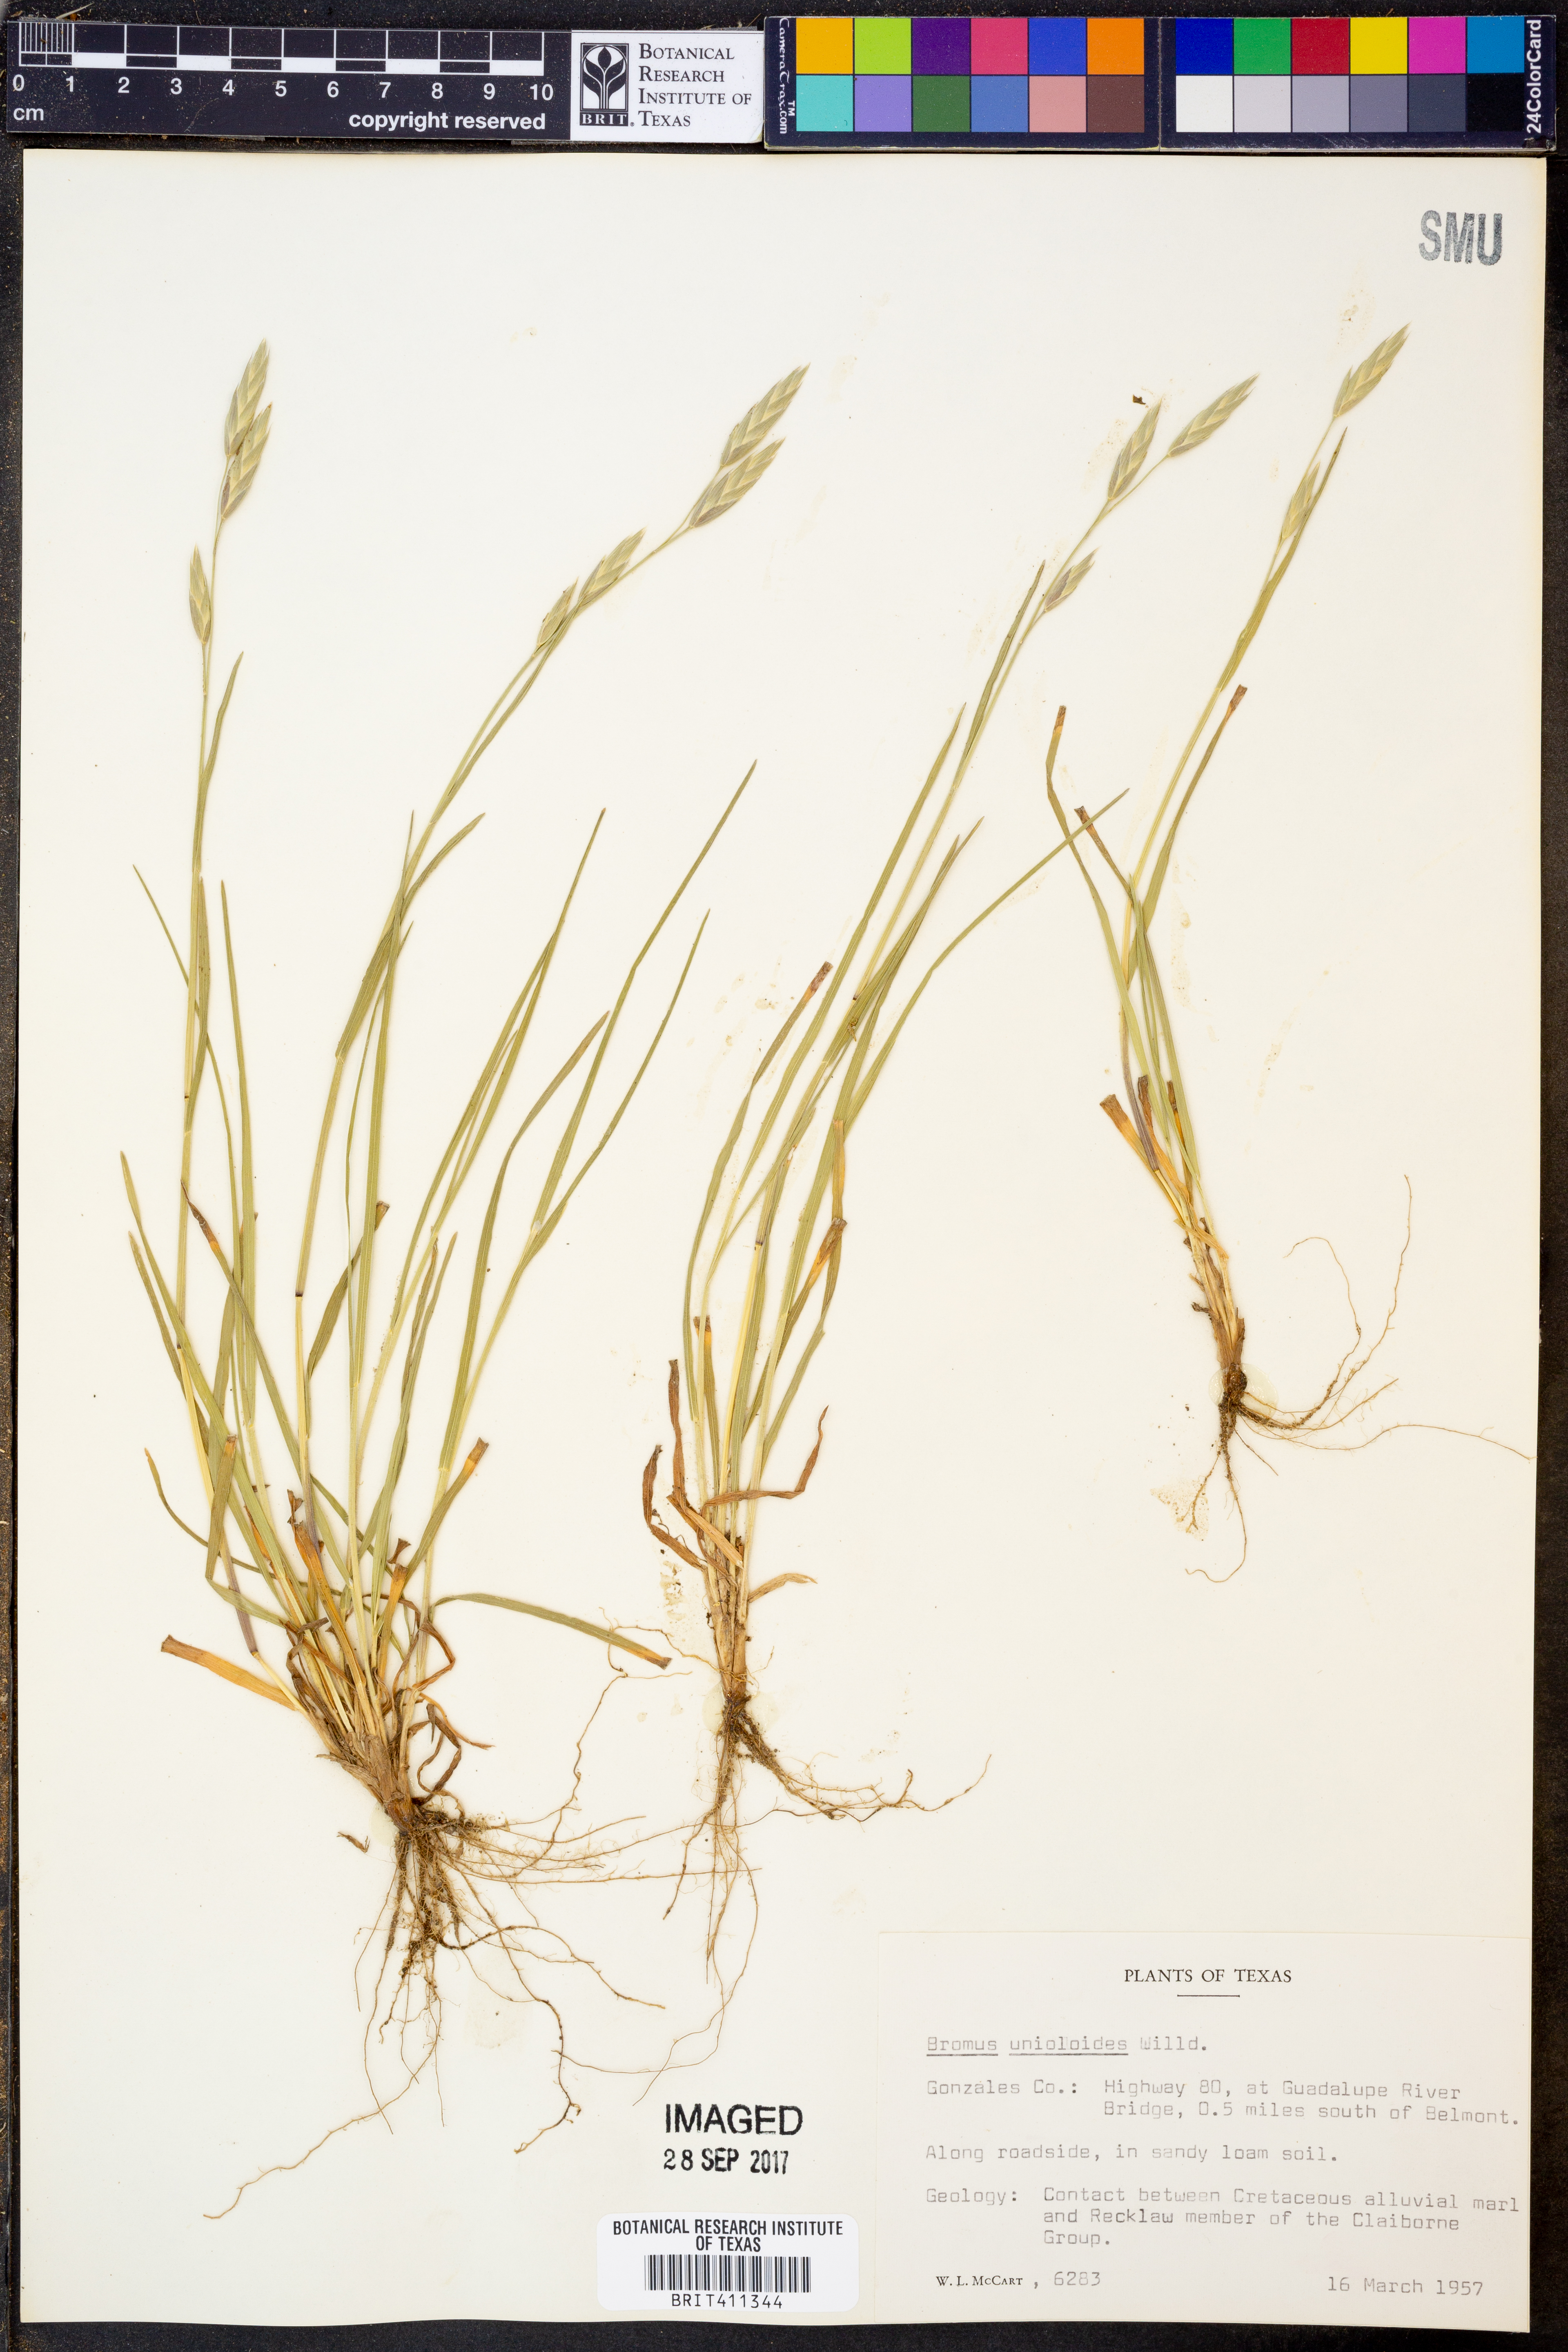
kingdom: Plantae
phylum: Tracheophyta
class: Liliopsida
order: Poales
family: Poaceae
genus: Bromus
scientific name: Bromus catharticus
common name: Rescuegrass
